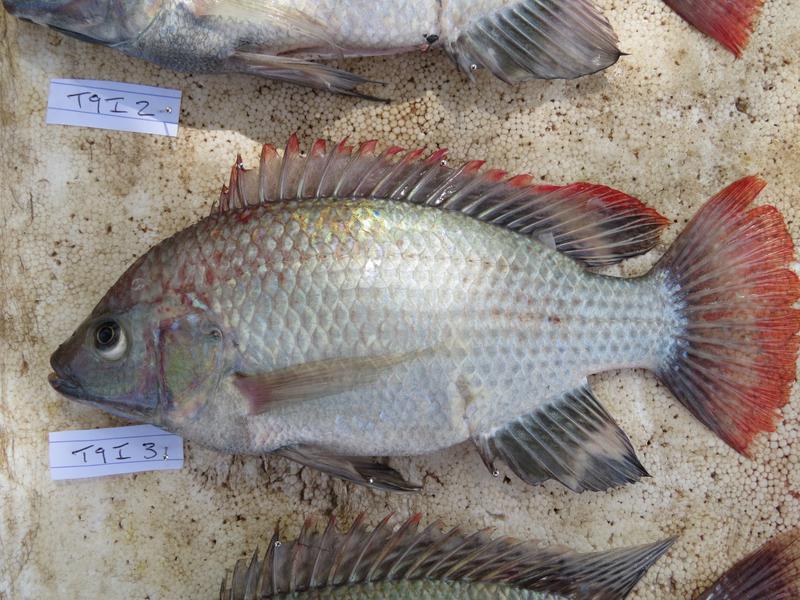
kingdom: Animalia
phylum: Chordata
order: Perciformes
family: Cichlidae
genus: Oreochromis
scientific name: Oreochromis rukwaensis
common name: Lake rukwa tilapia
